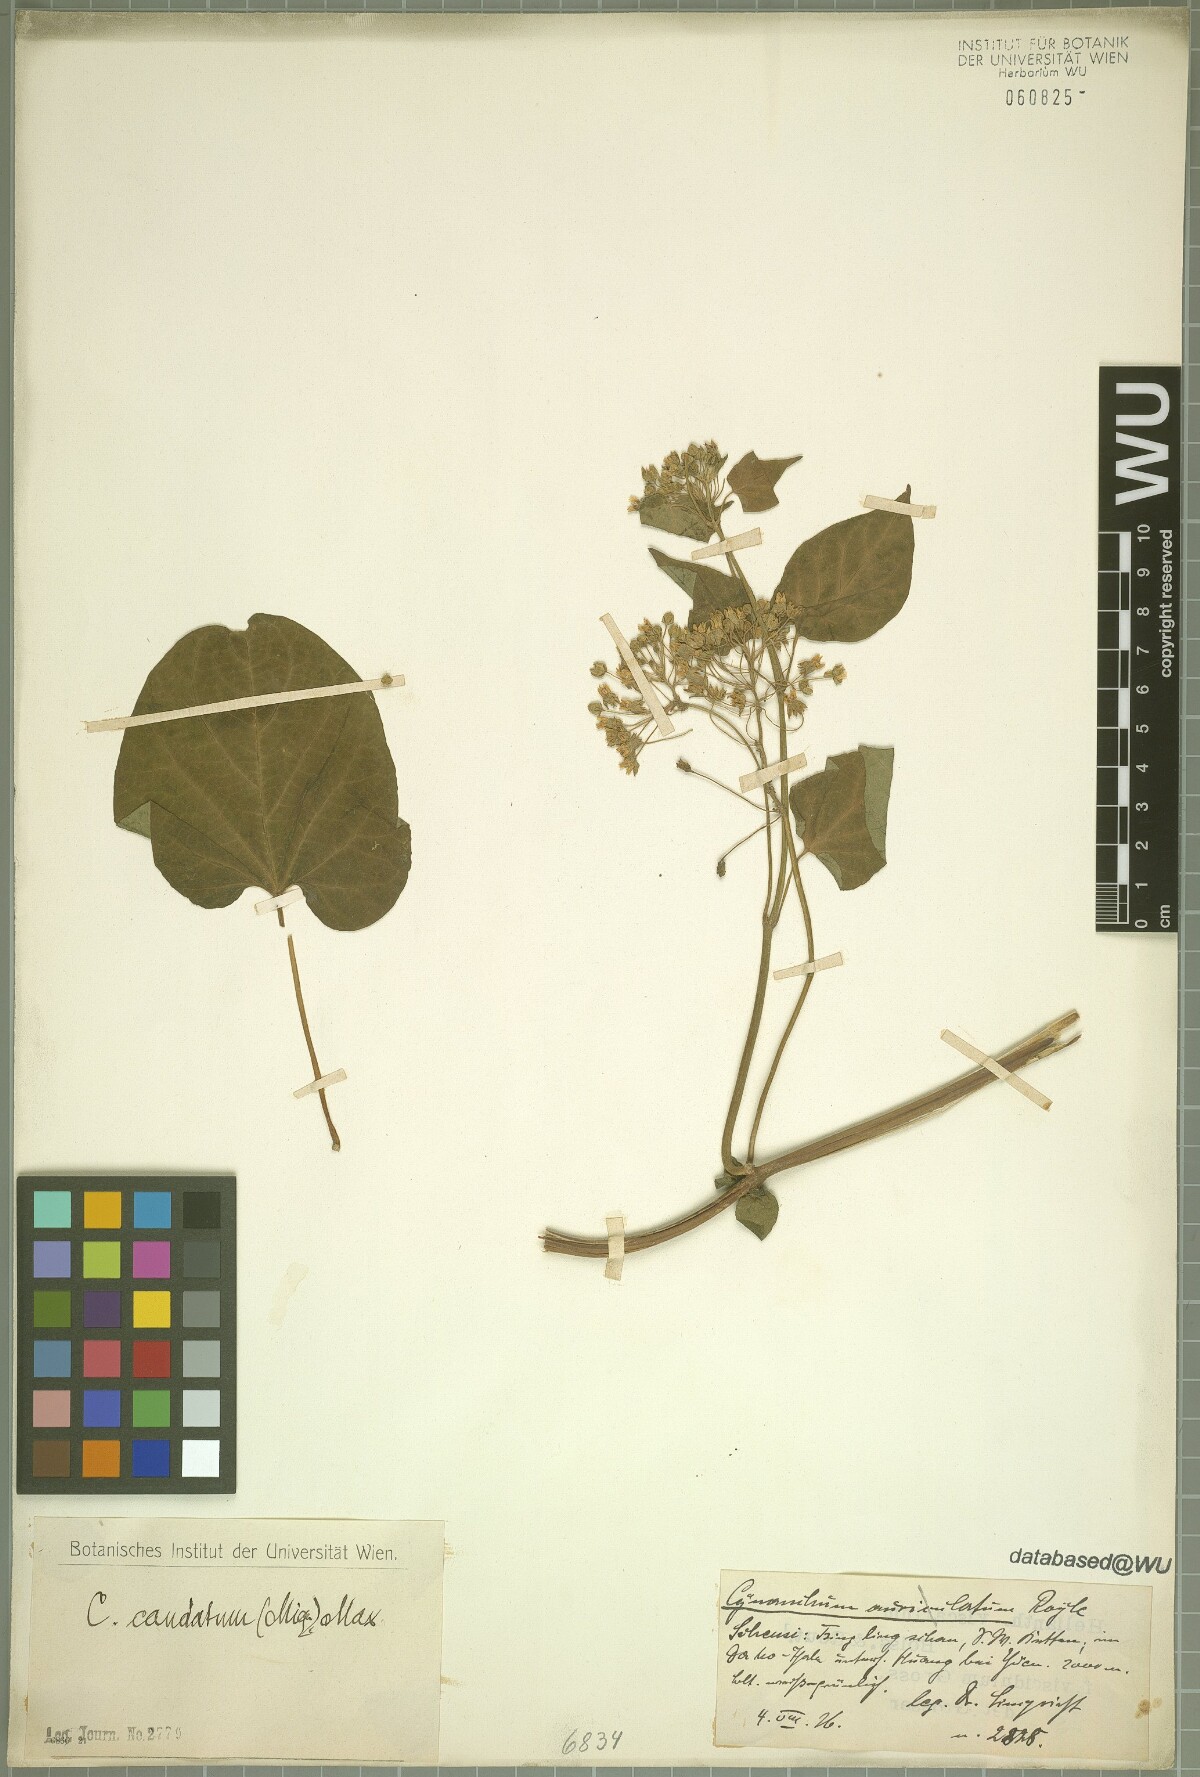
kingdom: Plantae
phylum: Tracheophyta
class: Magnoliopsida
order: Gentianales
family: Apocynaceae
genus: Cynanchum
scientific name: Cynanchum maximoviczii
